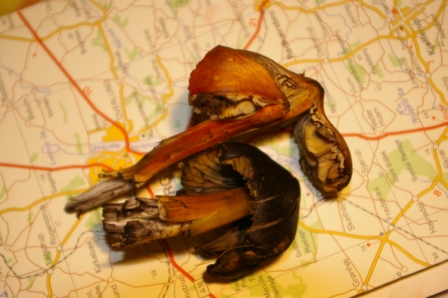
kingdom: Fungi
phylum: Basidiomycota
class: Agaricomycetes
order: Agaricales
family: Hygrophoraceae
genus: Hygrocybe
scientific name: Hygrocybe conica
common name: kegle-vokshat
